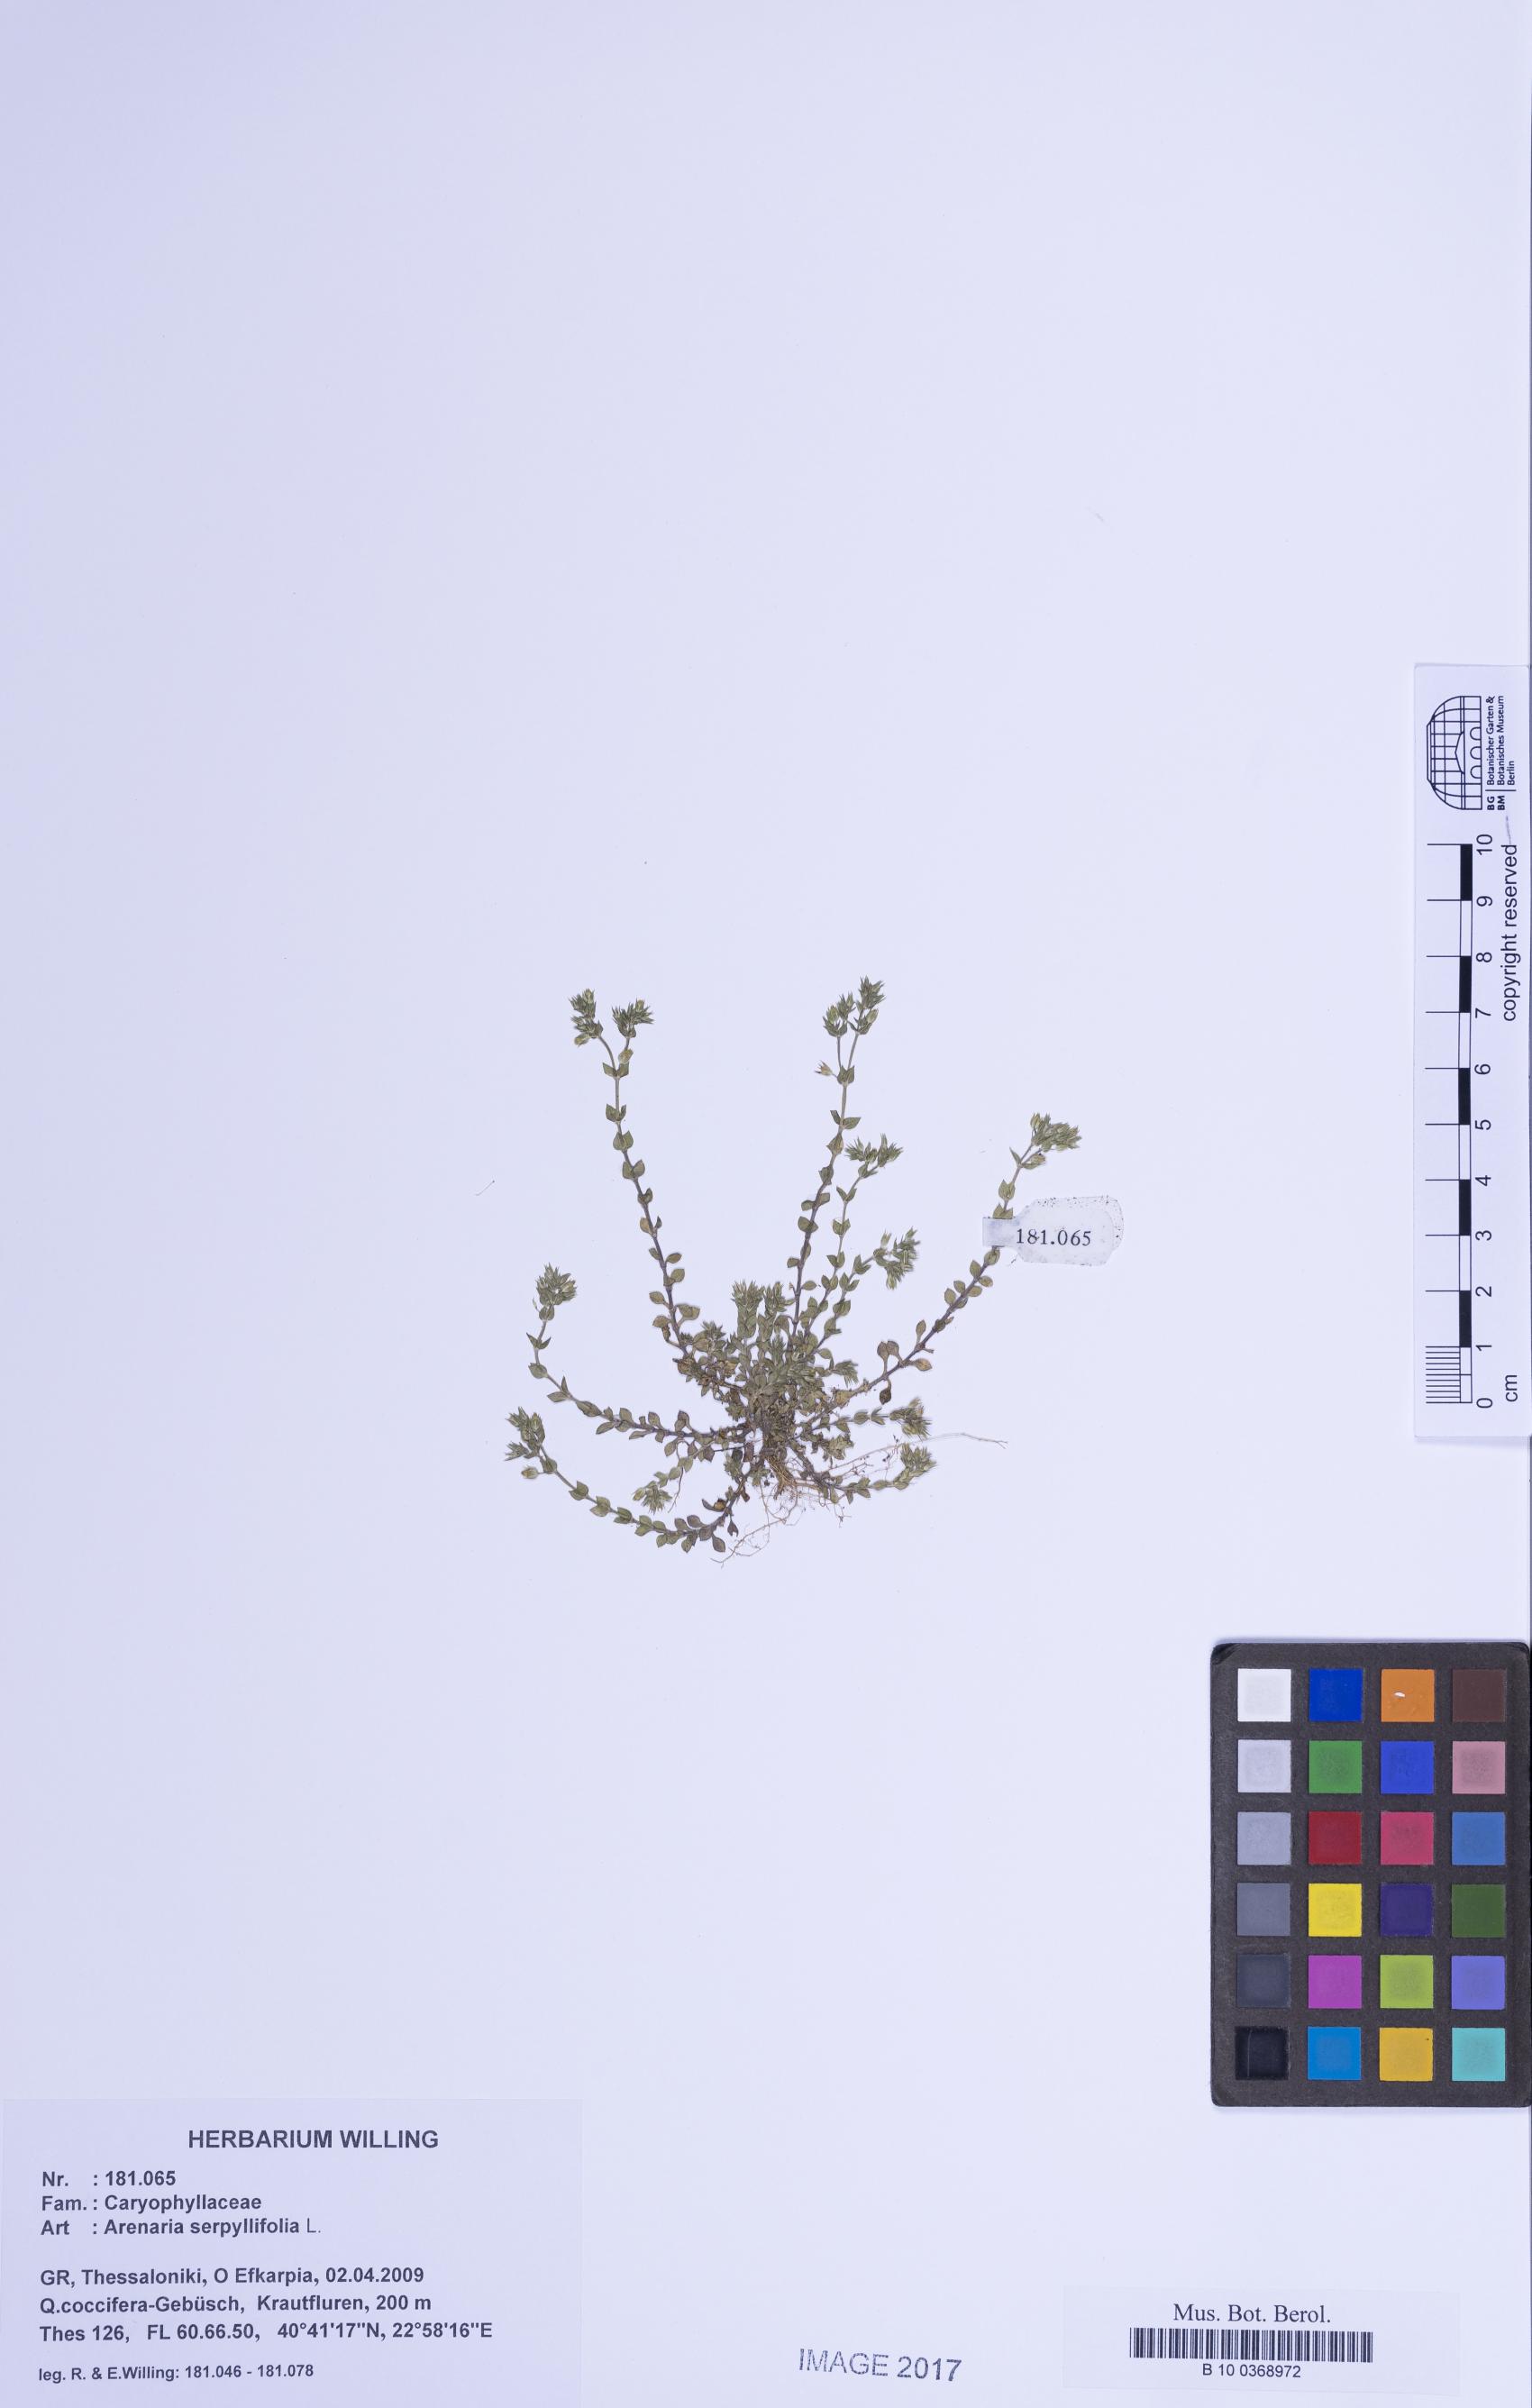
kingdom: Plantae
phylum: Tracheophyta
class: Magnoliopsida
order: Caryophyllales
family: Caryophyllaceae
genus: Arenaria
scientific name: Arenaria serpyllifolia
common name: Thyme-leaved sandwort
